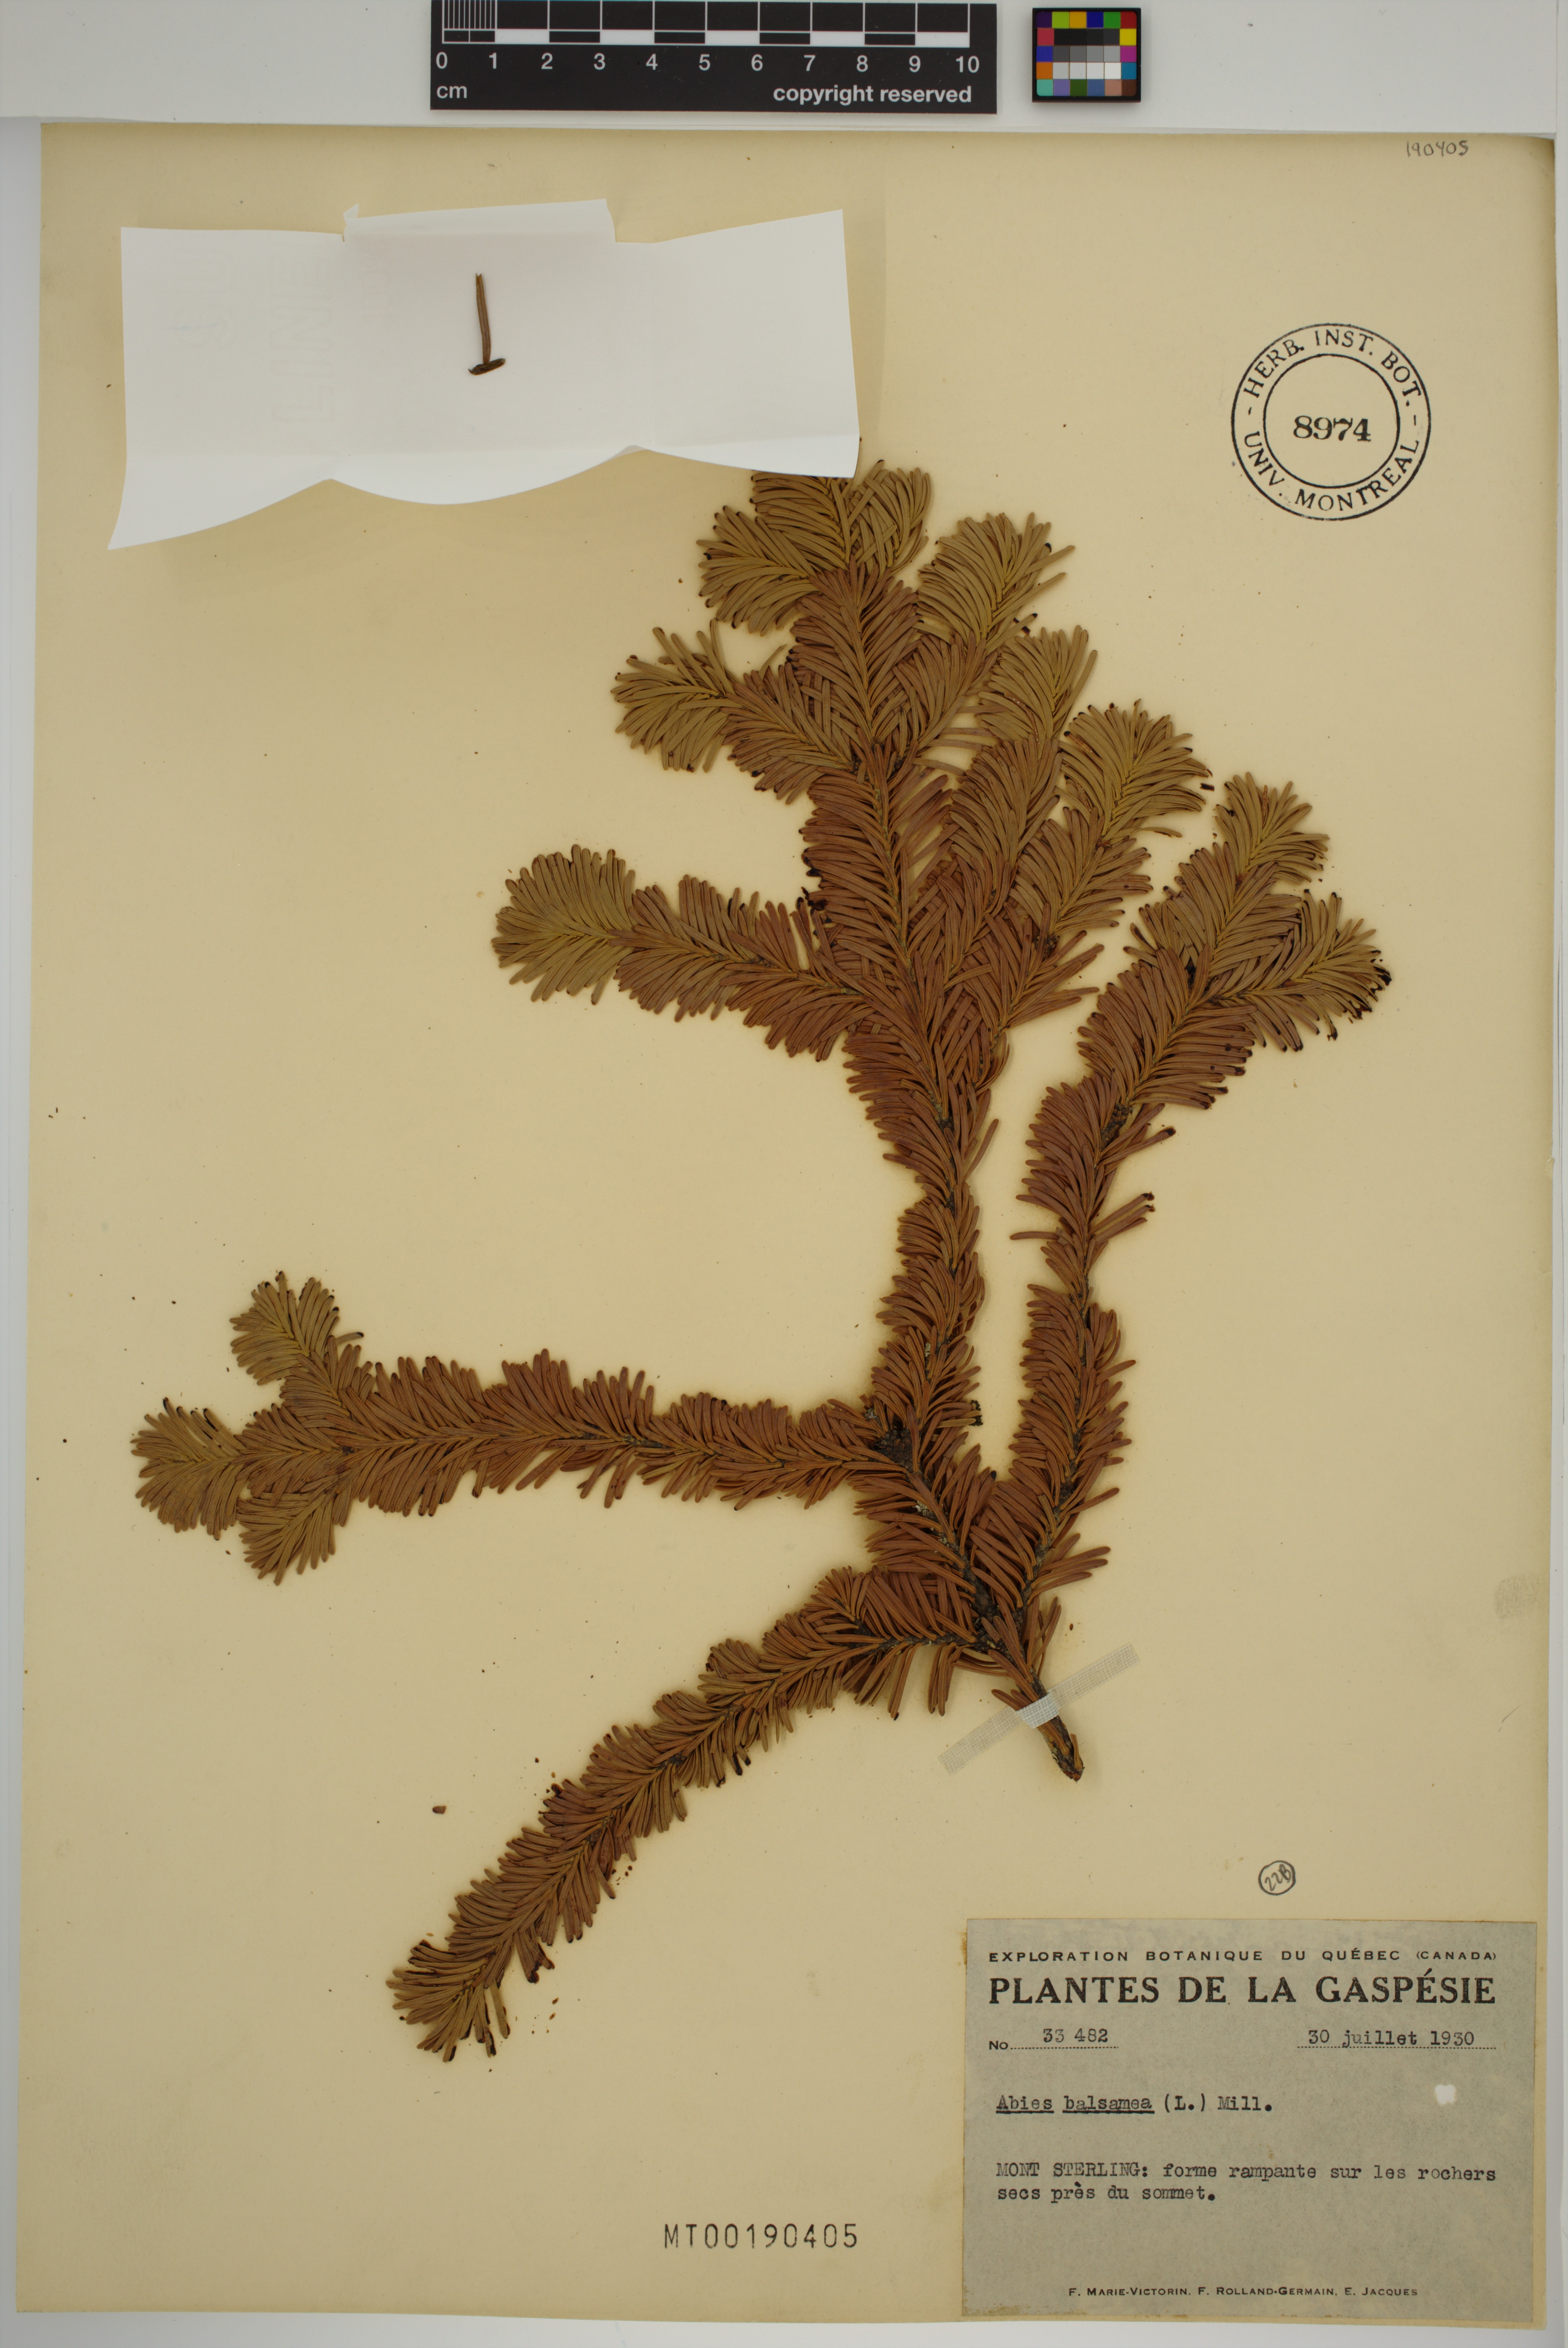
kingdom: Plantae
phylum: Tracheophyta
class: Pinopsida
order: Pinales
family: Pinaceae
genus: Abies
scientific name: Abies balsamea
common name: Balsam fir
